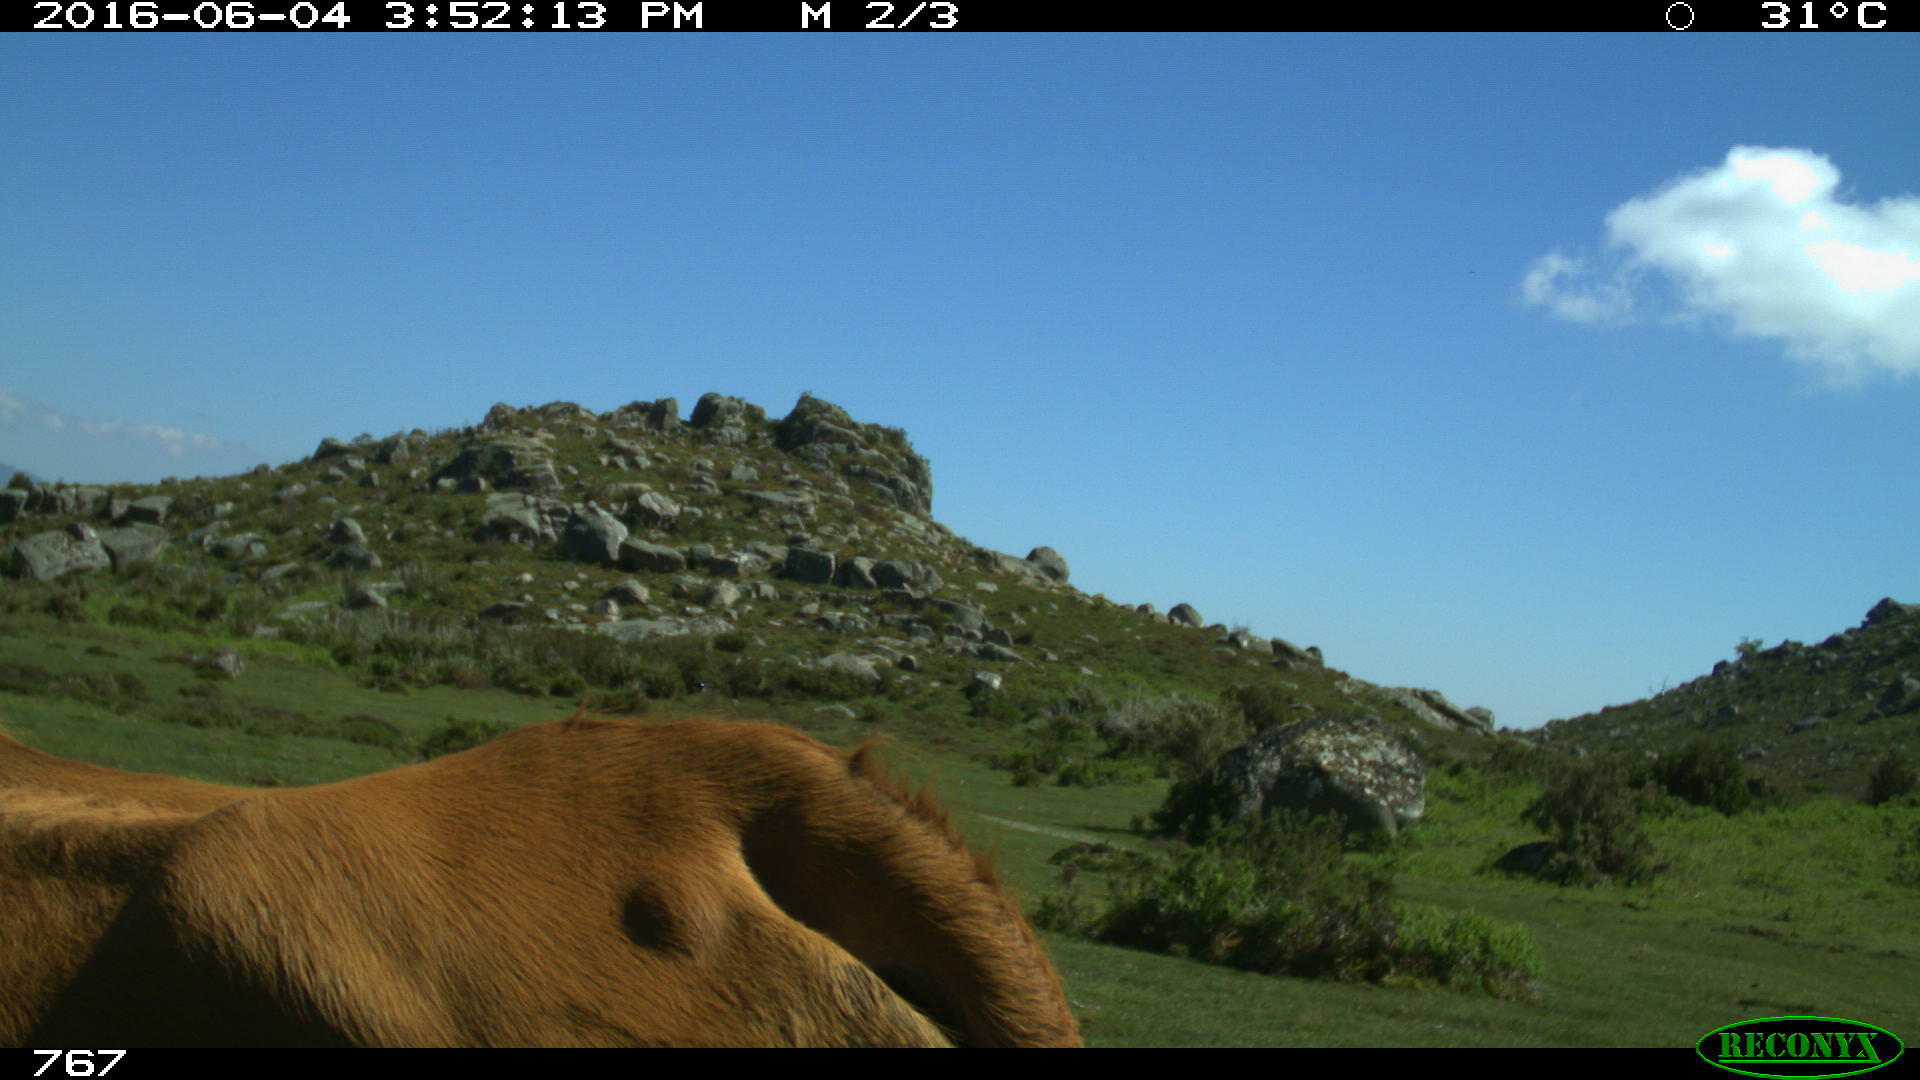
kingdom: Animalia
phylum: Chordata
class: Mammalia
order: Artiodactyla
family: Bovidae
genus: Bos
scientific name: Bos taurus
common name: Domesticated cattle
